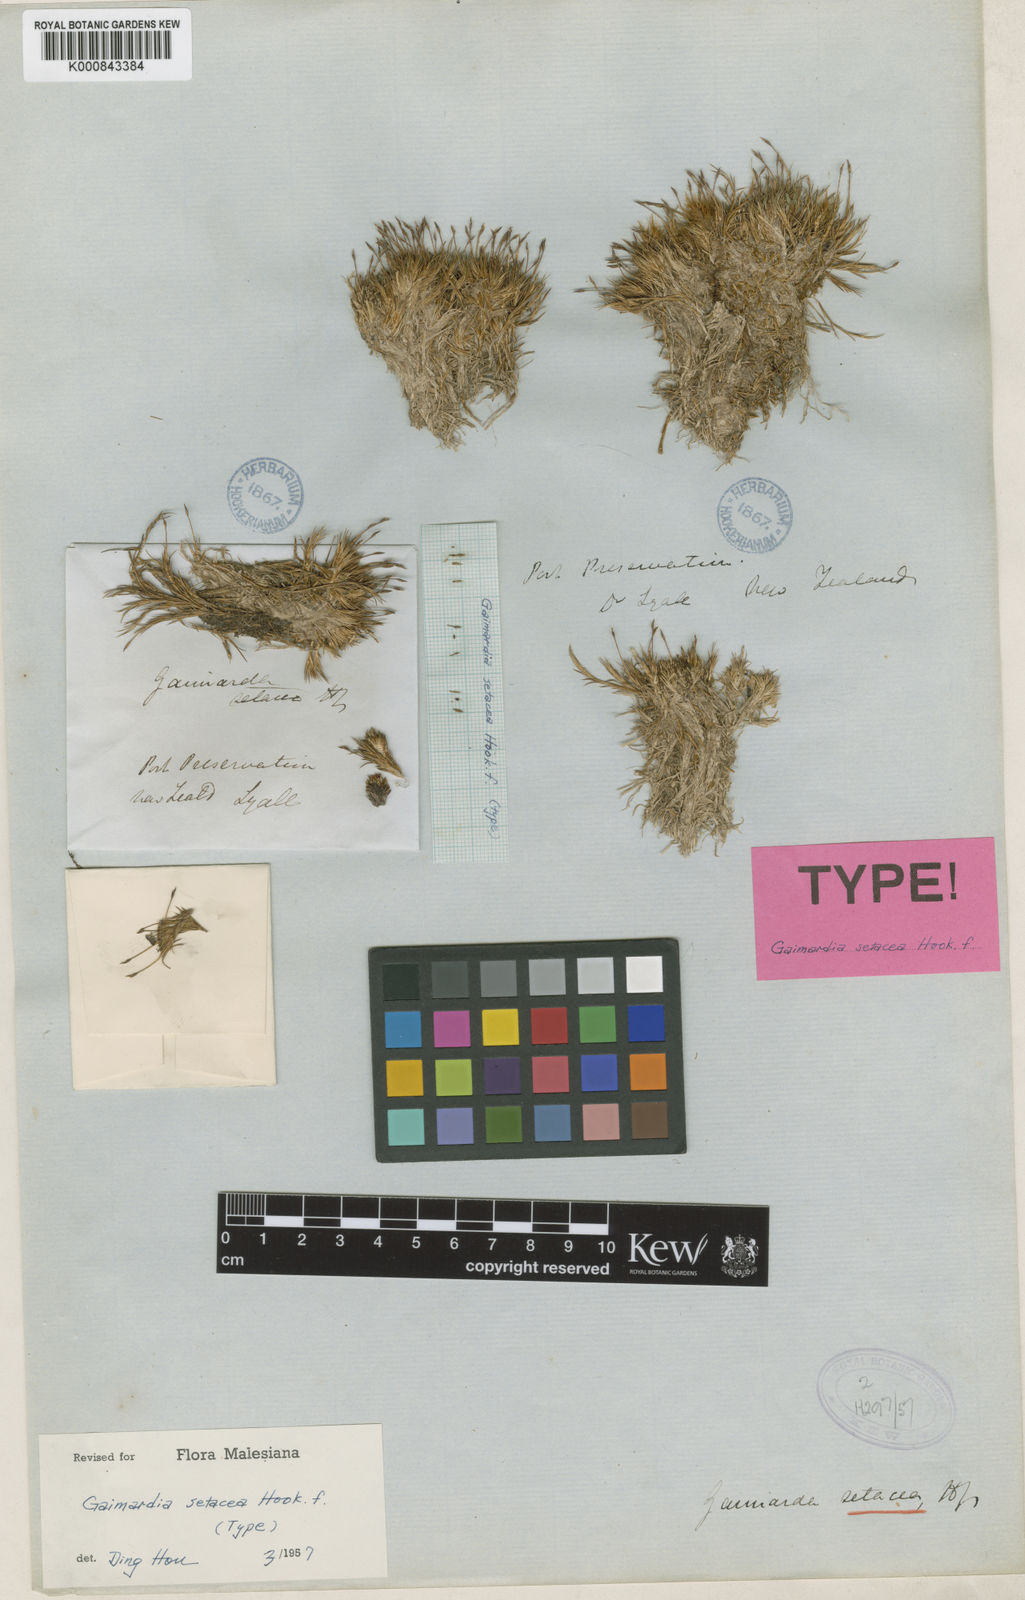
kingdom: Plantae
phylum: Tracheophyta
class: Liliopsida
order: Poales
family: Restionaceae
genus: Gaimardia
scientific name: Gaimardia setacea
